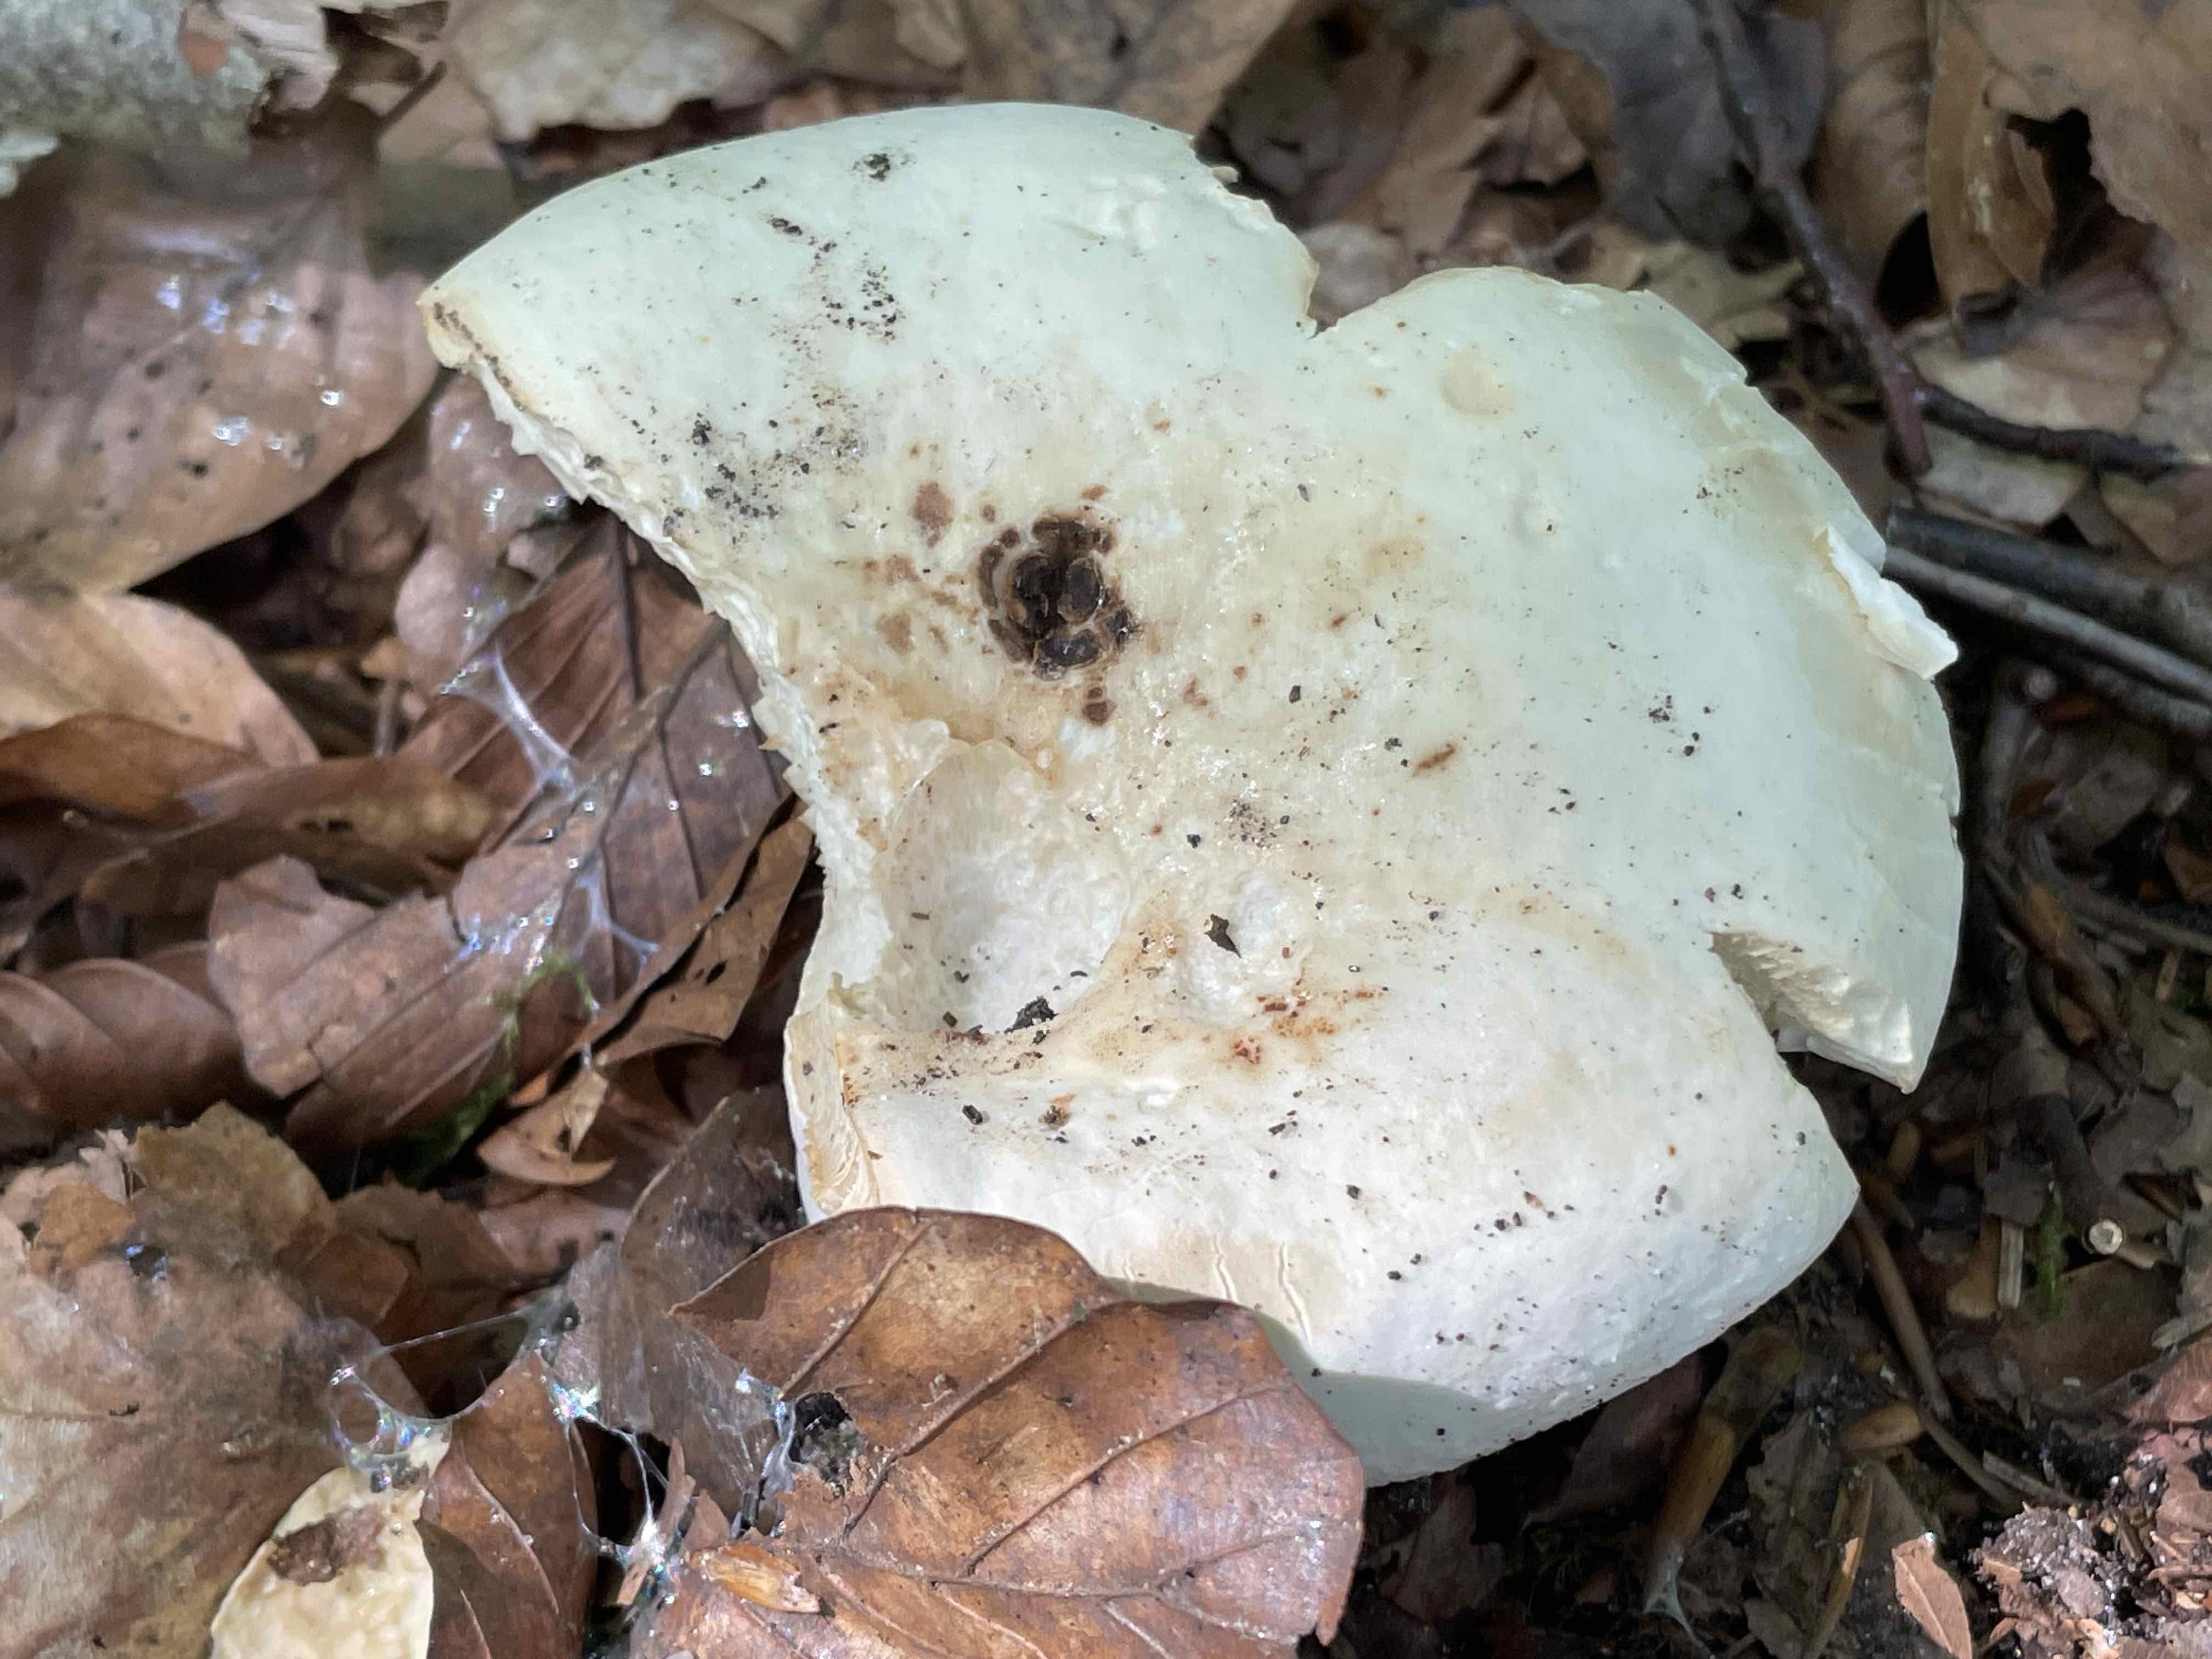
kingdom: Fungi
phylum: Basidiomycota
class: Agaricomycetes
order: Russulales
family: Russulaceae
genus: Lactifluus
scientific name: Lactifluus piperatus
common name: peber-mælkehat
